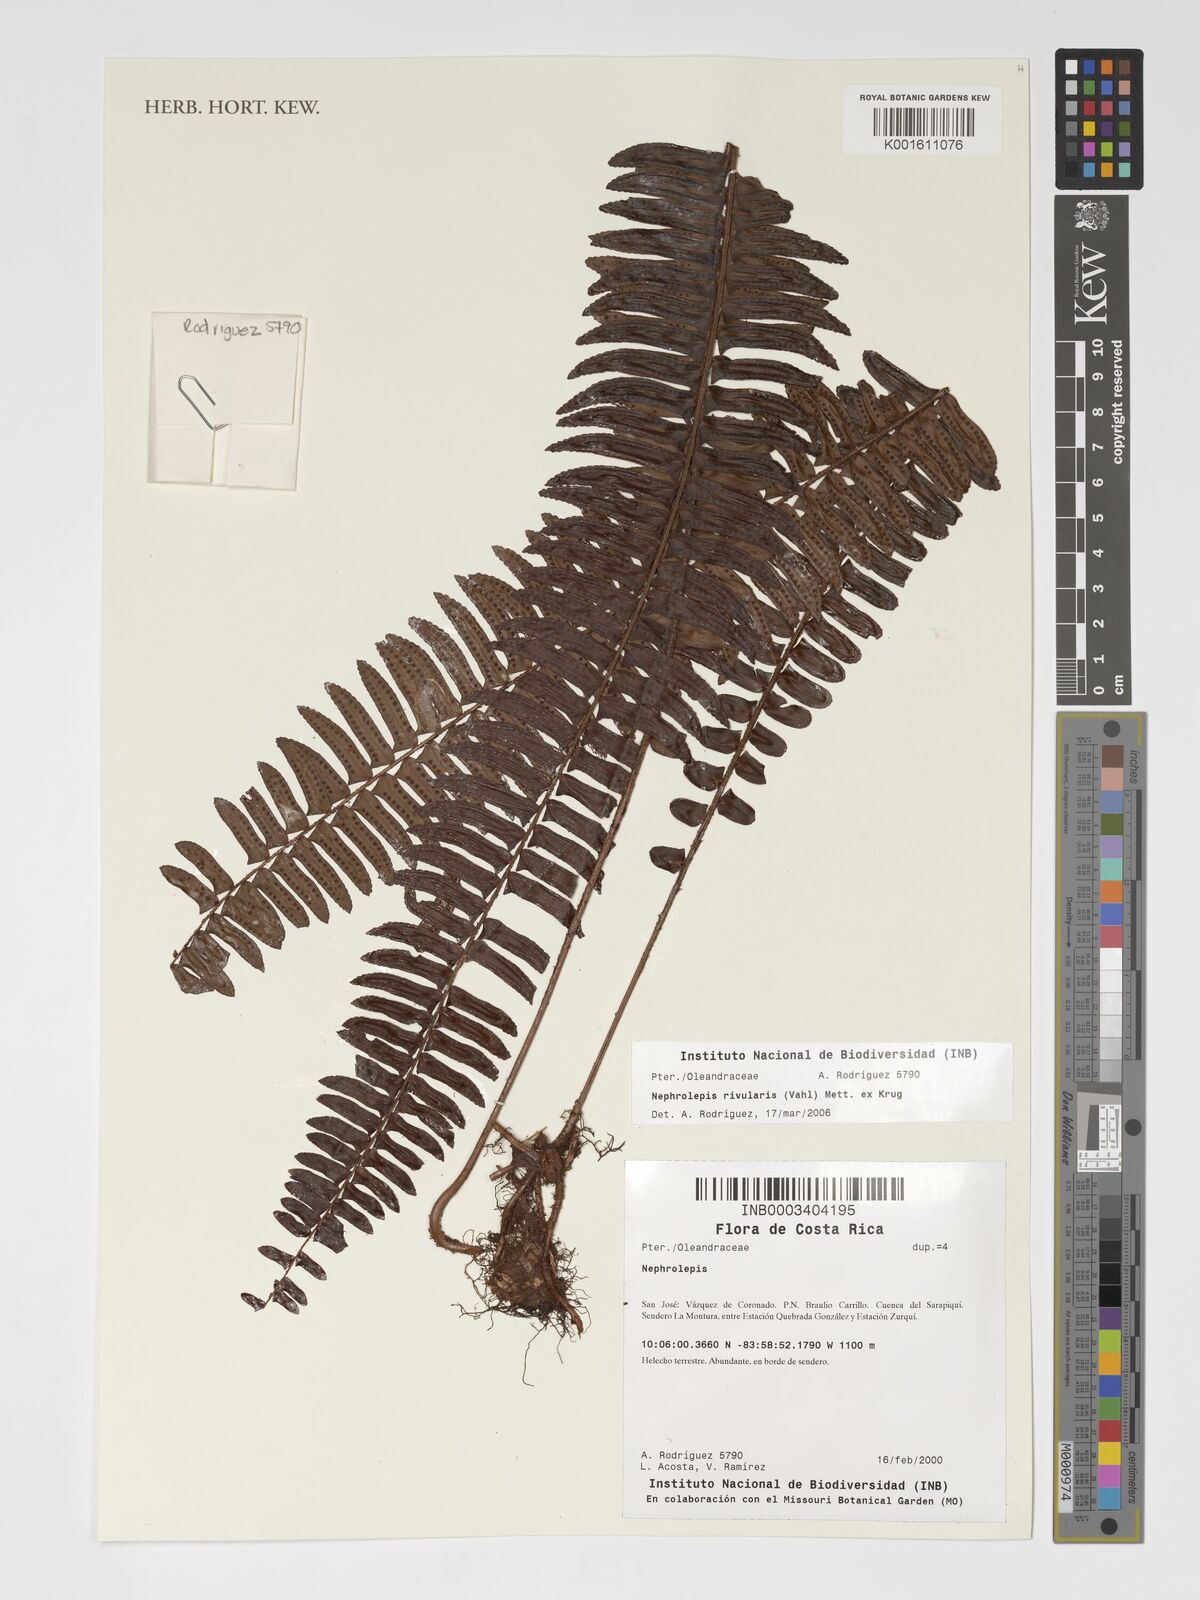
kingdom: Plantae
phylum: Tracheophyta
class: Polypodiopsida
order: Polypodiales
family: Nephrolepidaceae
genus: Nephrolepis
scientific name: Nephrolepis rivularis
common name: Streamside swordfern
